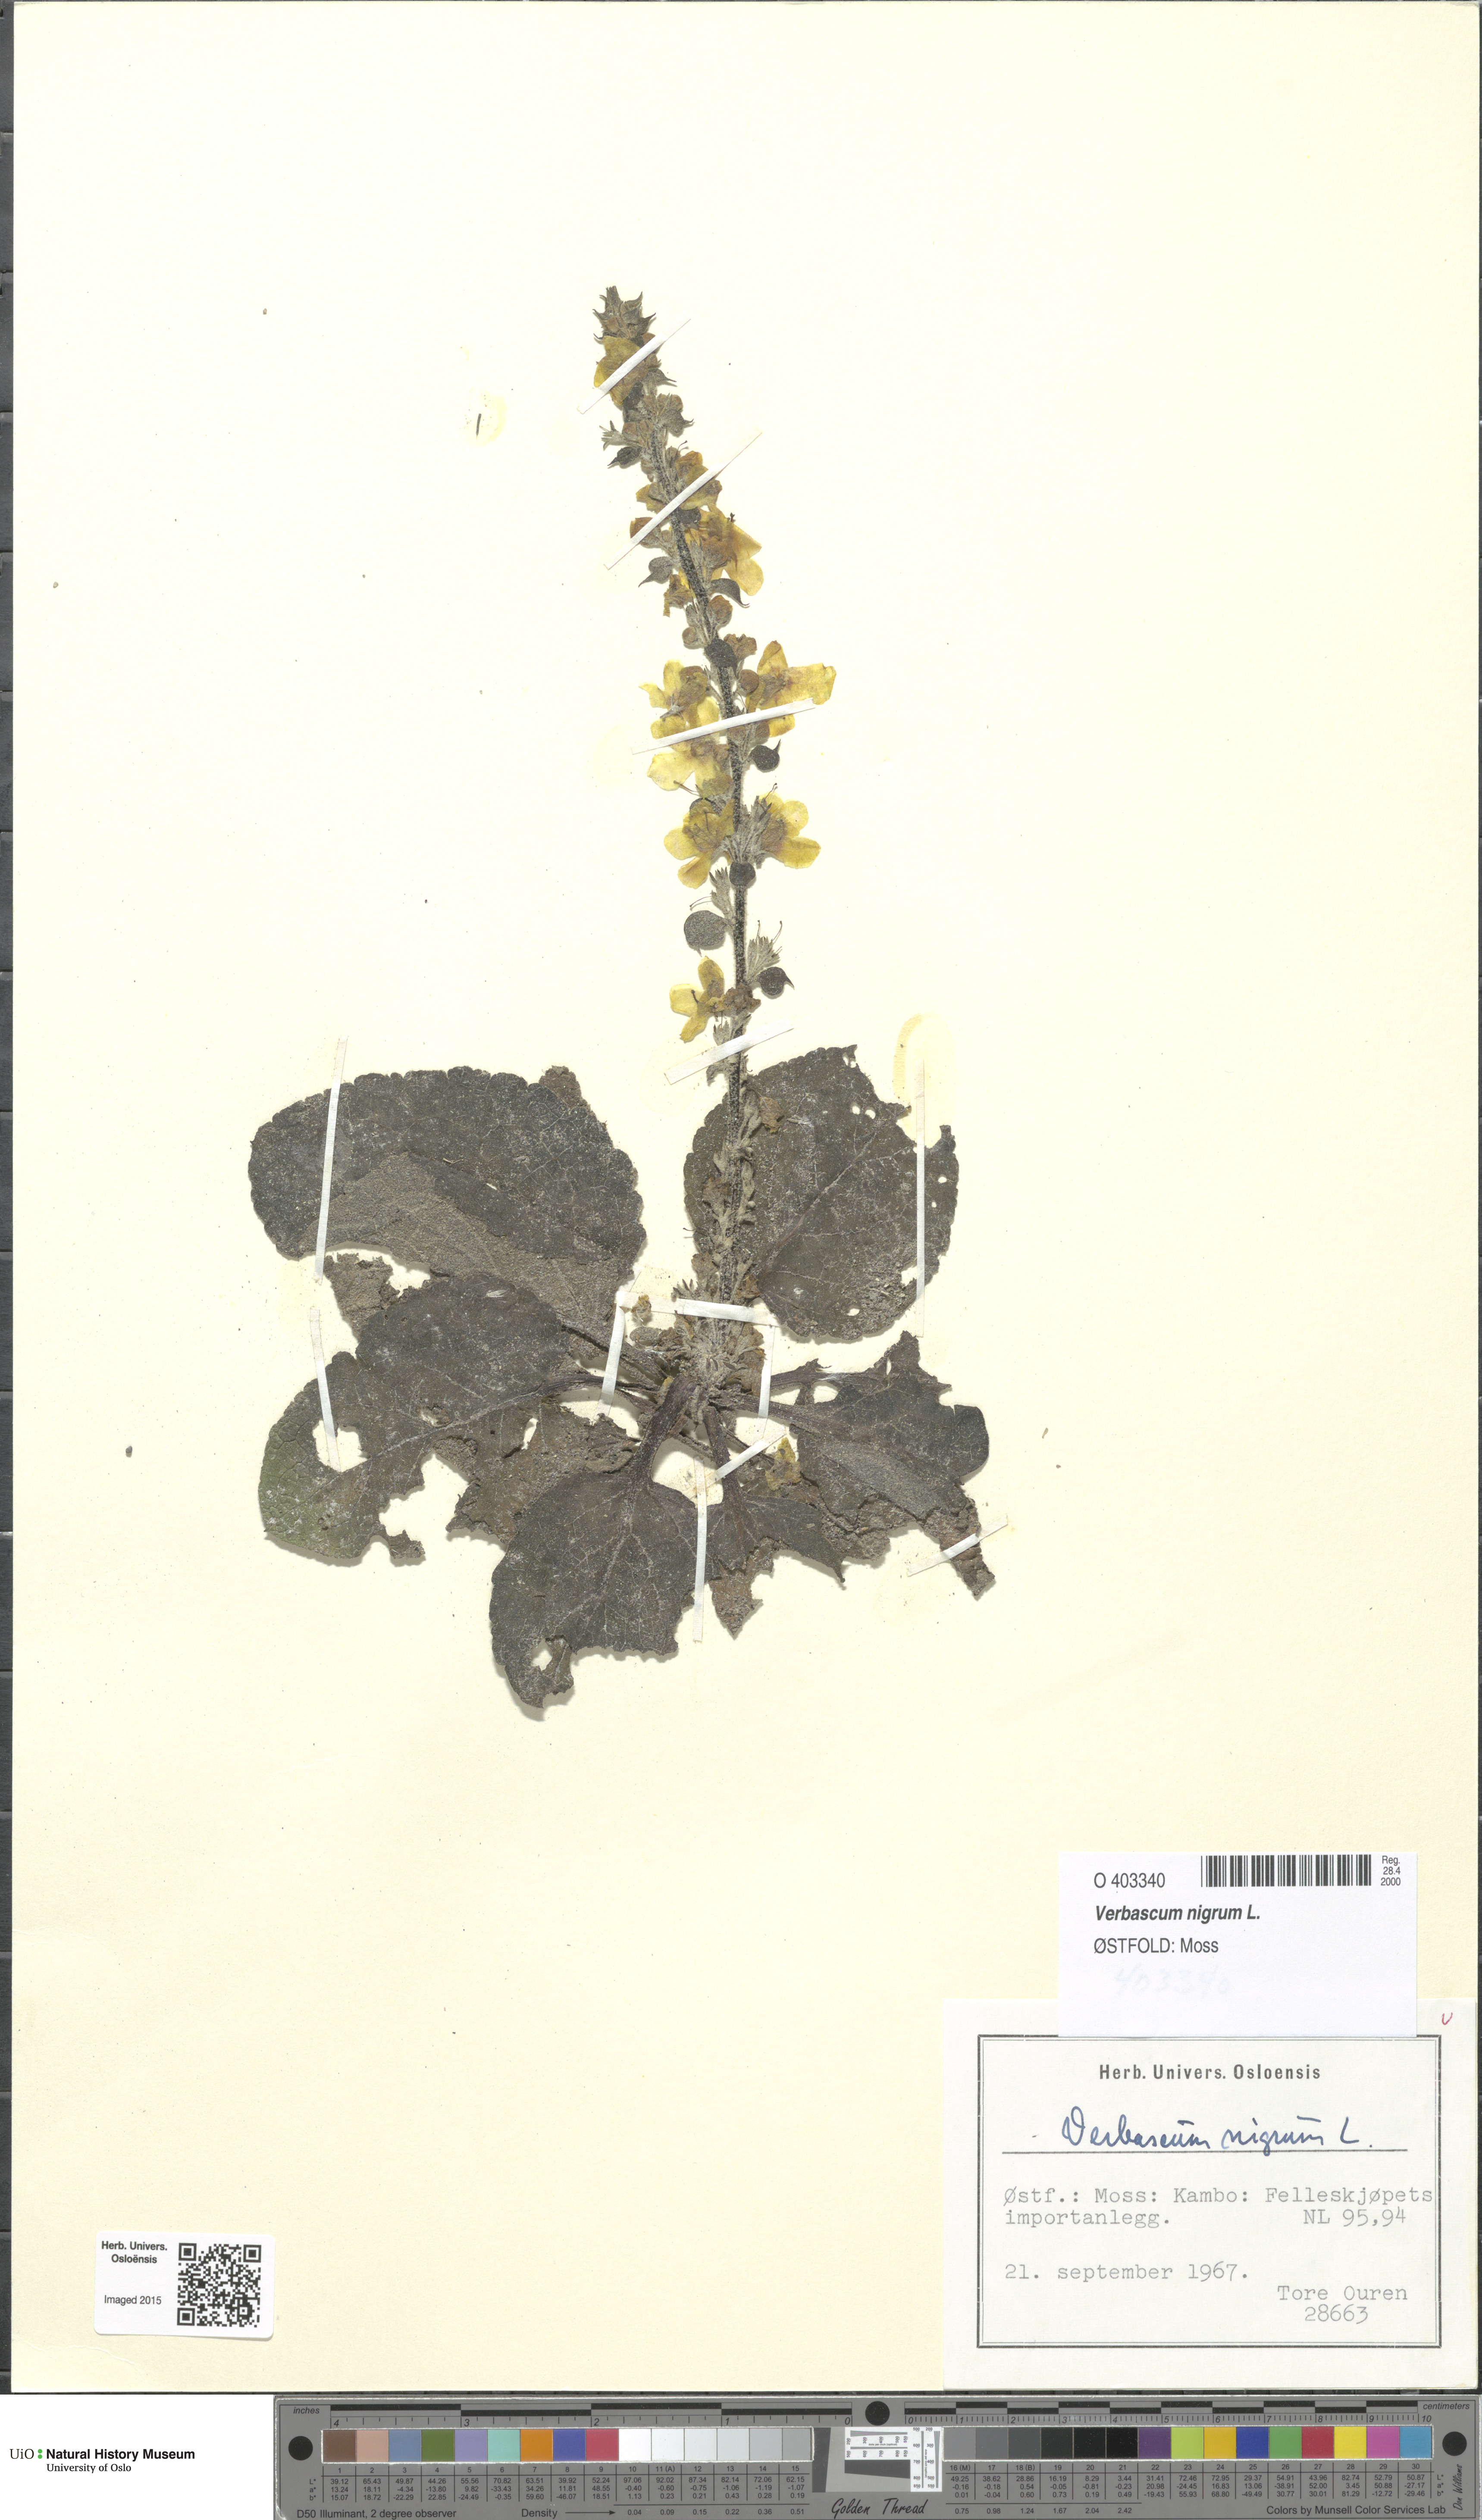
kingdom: Plantae
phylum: Tracheophyta
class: Magnoliopsida
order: Lamiales
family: Scrophulariaceae
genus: Verbascum
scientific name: Verbascum nigrum
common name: Dark mullein
